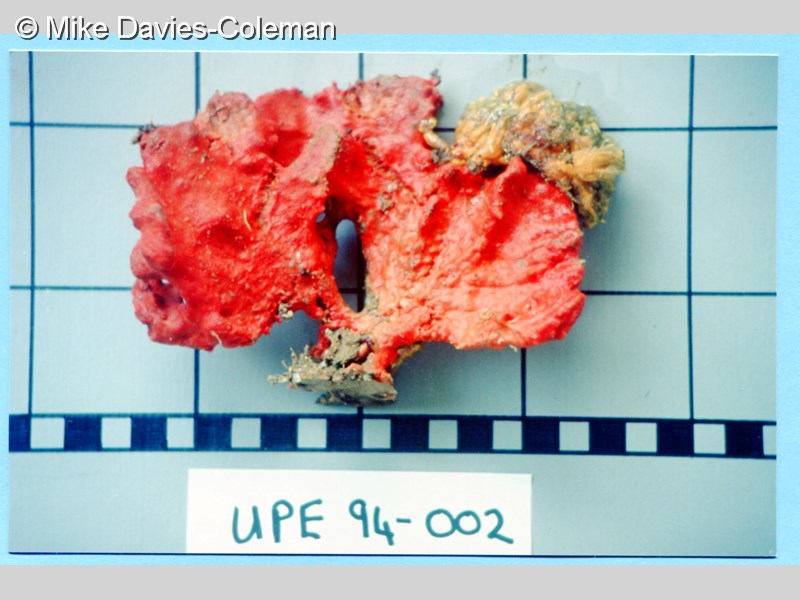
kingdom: Animalia
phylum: Porifera
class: Demospongiae
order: Poecilosclerida
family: Microcionidae
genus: Clathria
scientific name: Clathria
